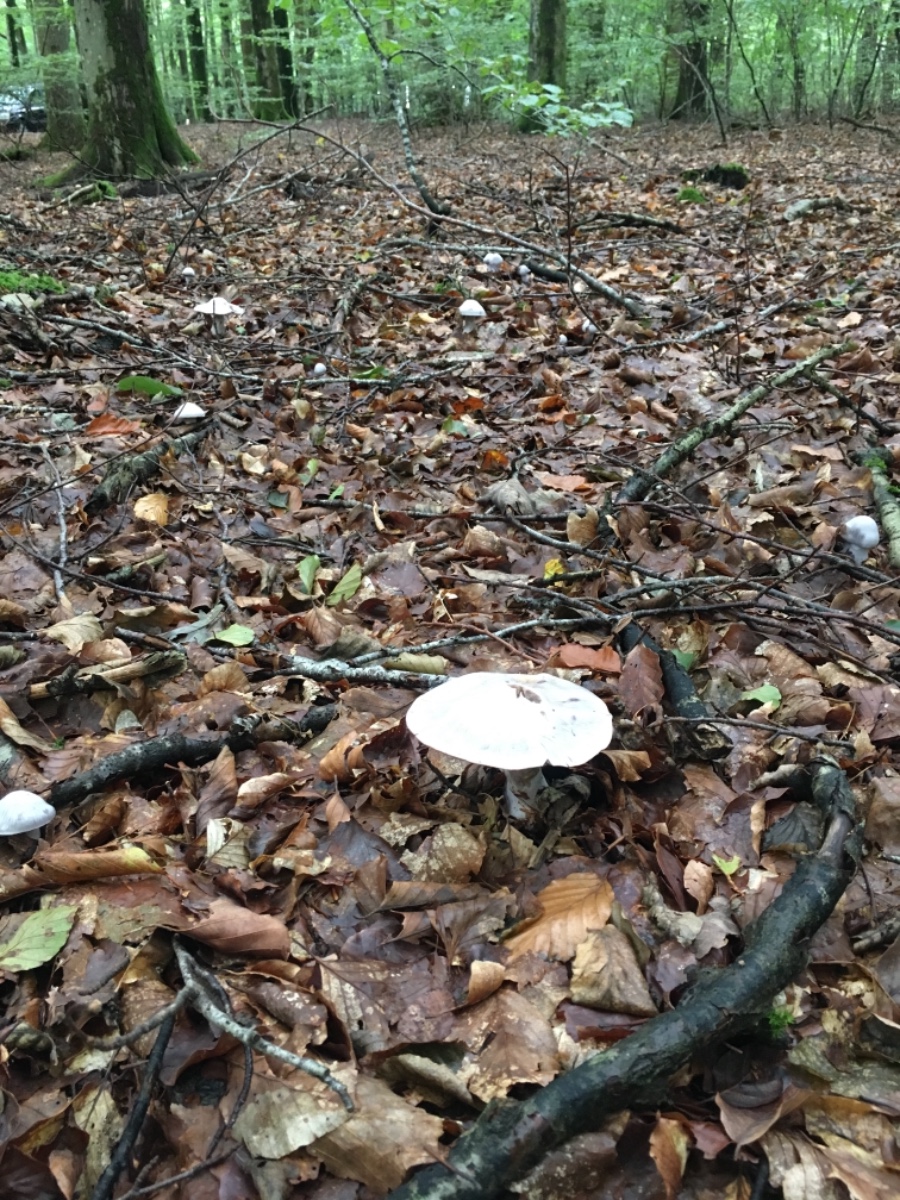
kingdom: Fungi
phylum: Basidiomycota
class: Agaricomycetes
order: Agaricales
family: Cortinariaceae
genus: Cortinarius
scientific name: Cortinarius alboviolaceus
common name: lysviolet slørhat
